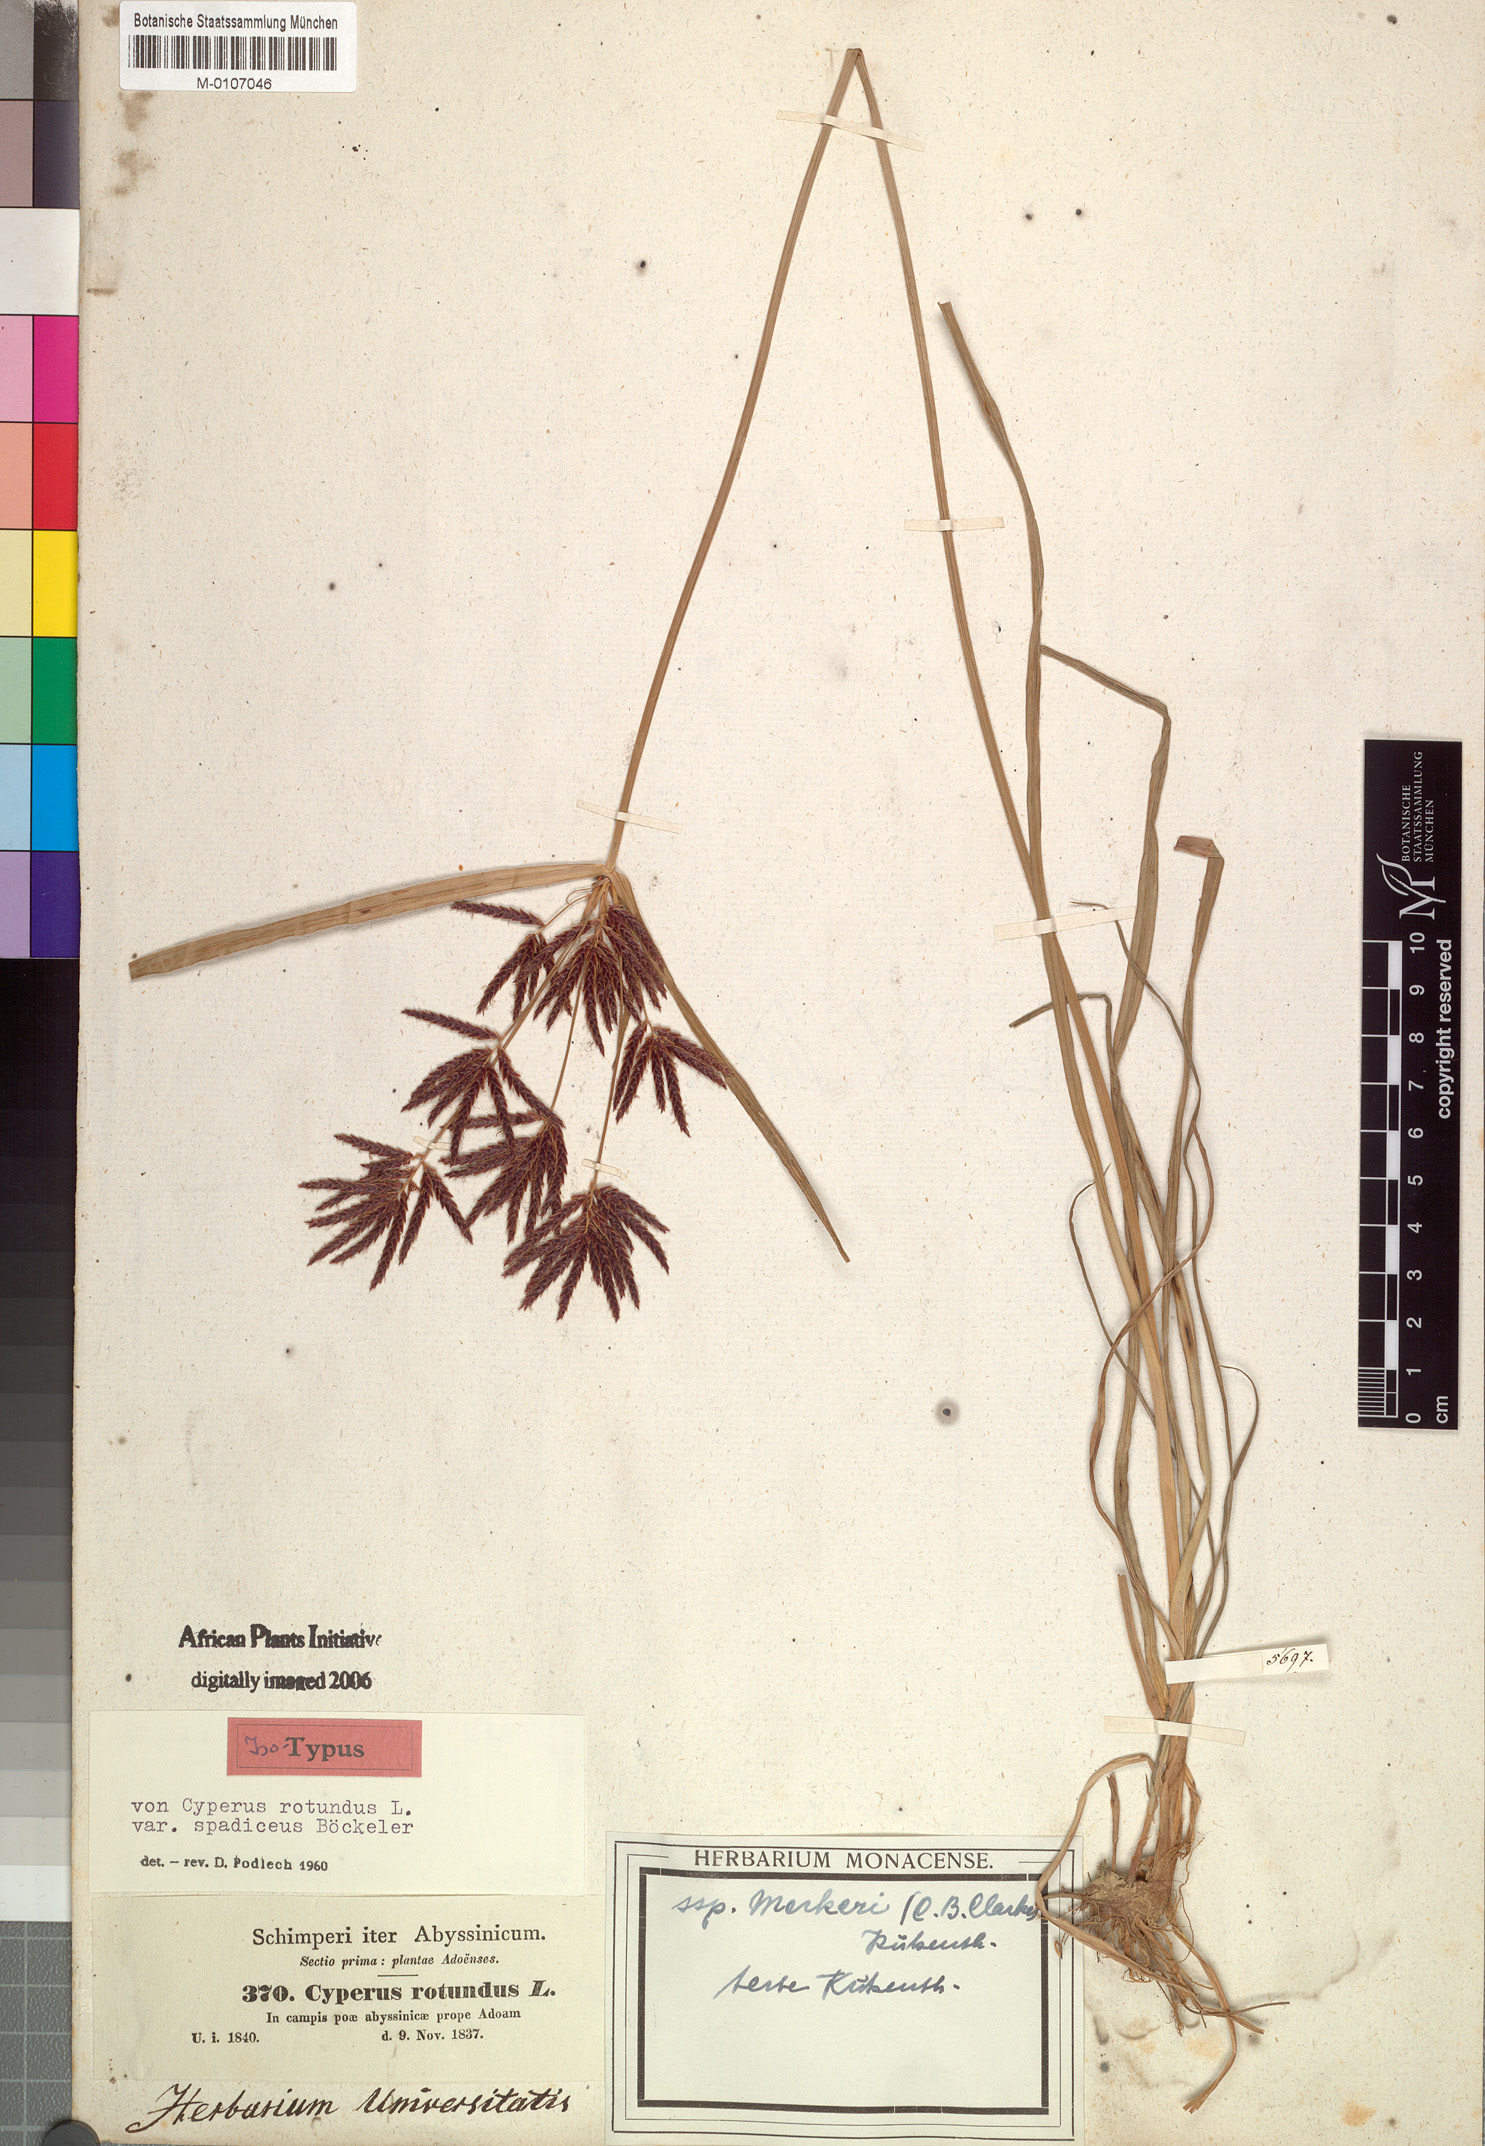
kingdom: Plantae
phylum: Tracheophyta
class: Liliopsida
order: Poales
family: Cyperaceae
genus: Cyperus
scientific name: Cyperus rotundus
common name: Nutgrass
